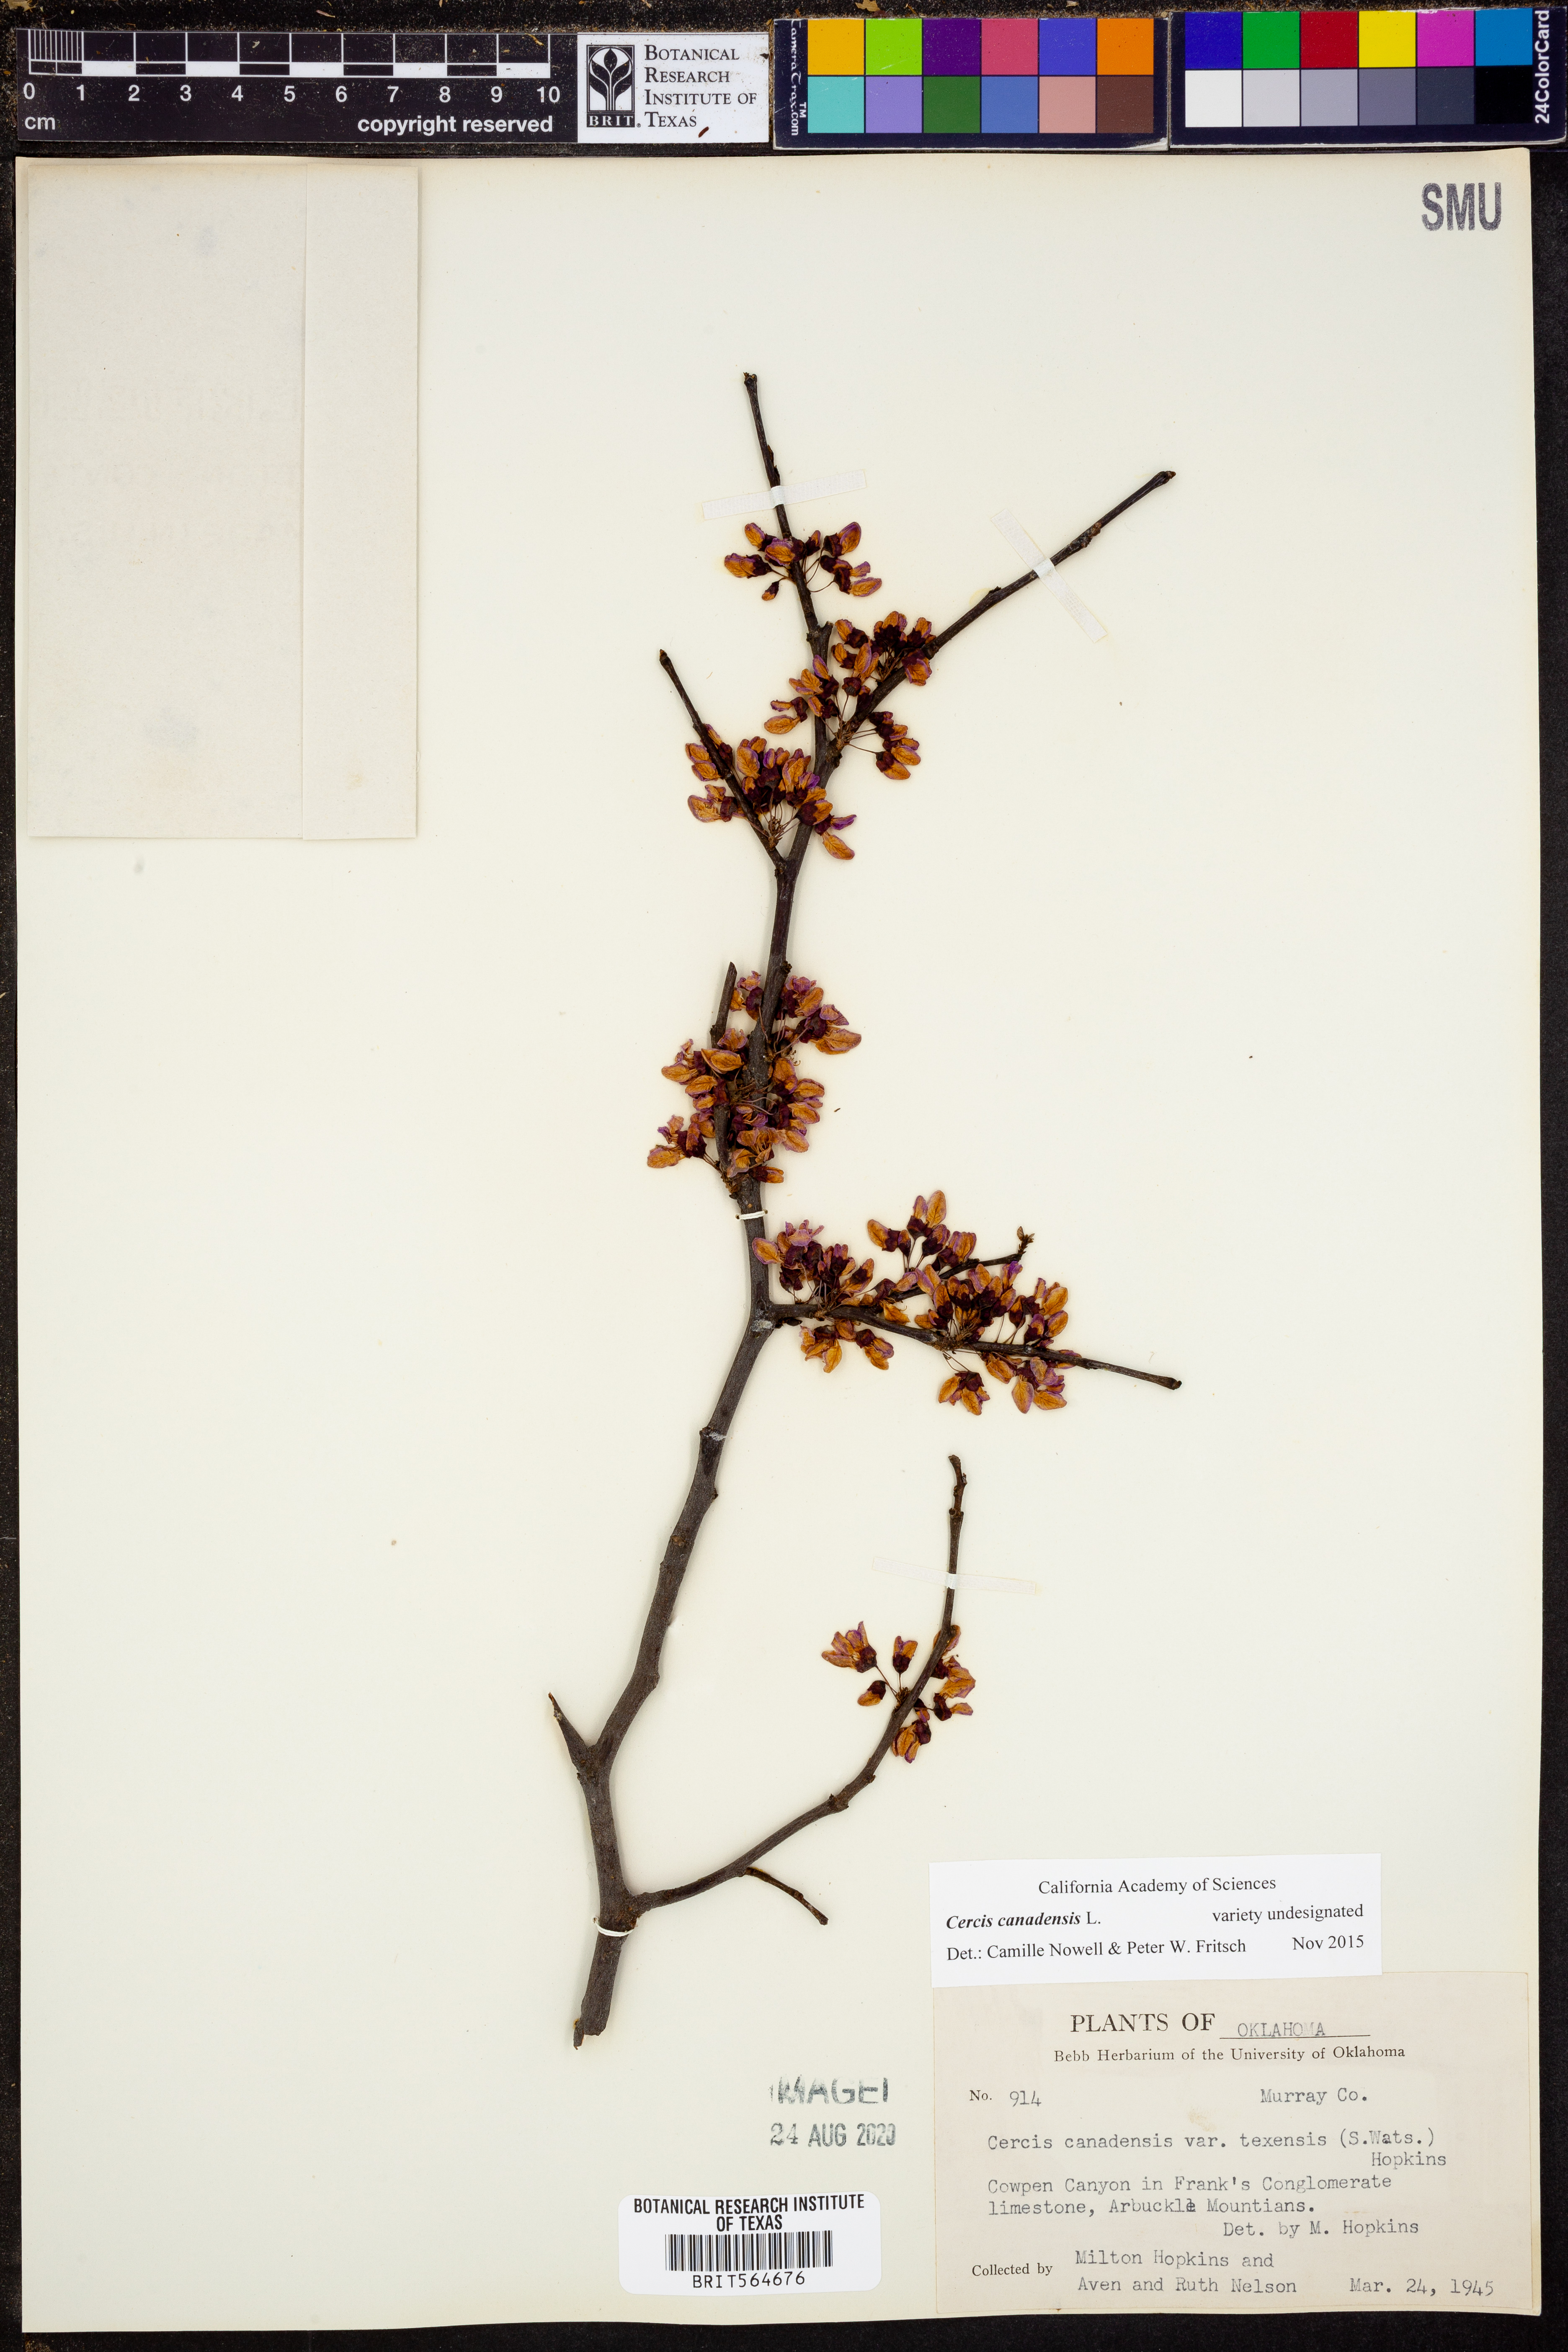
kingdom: Plantae
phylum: Tracheophyta
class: Magnoliopsida
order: Fabales
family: Fabaceae
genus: Cercis
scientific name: Cercis canadensis
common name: Eastern redbud
